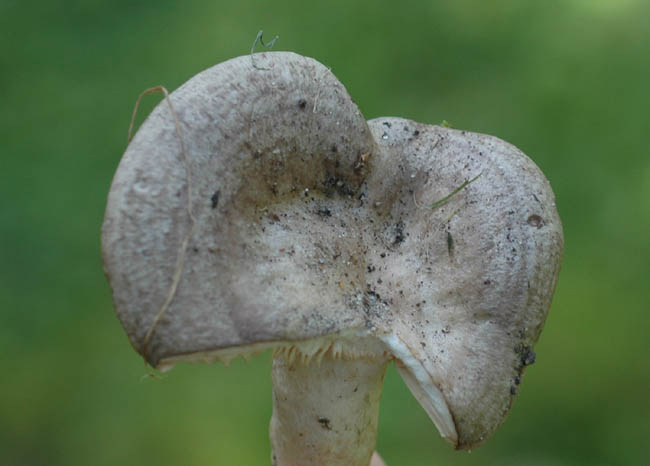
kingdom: Fungi
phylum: Basidiomycota
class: Agaricomycetes
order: Russulales
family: Russulaceae
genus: Lactarius
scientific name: Lactarius circellatus
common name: avnbøg-mælkehat
